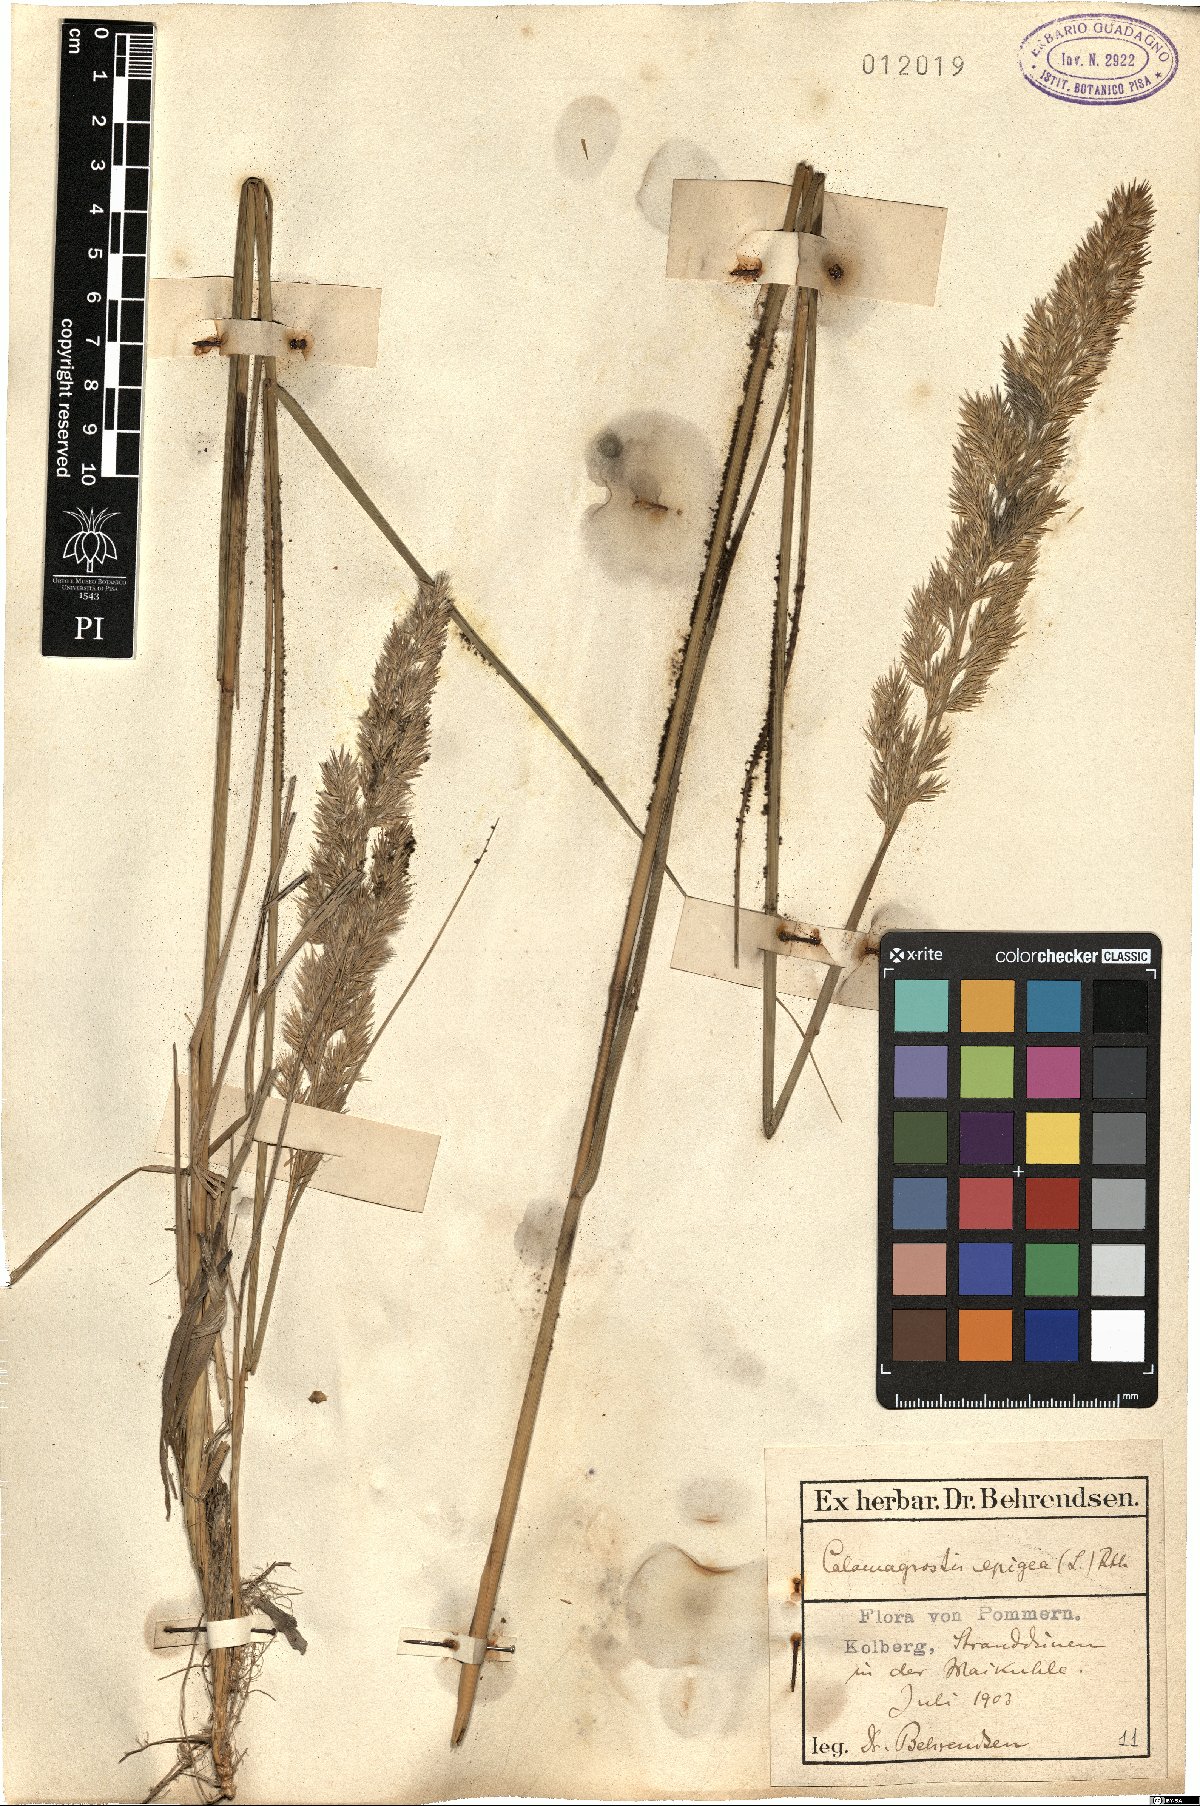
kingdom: Plantae
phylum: Tracheophyta
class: Liliopsida
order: Poales
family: Poaceae
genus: Calamagrostis
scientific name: Calamagrostis epigejos
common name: Wood small-reed
